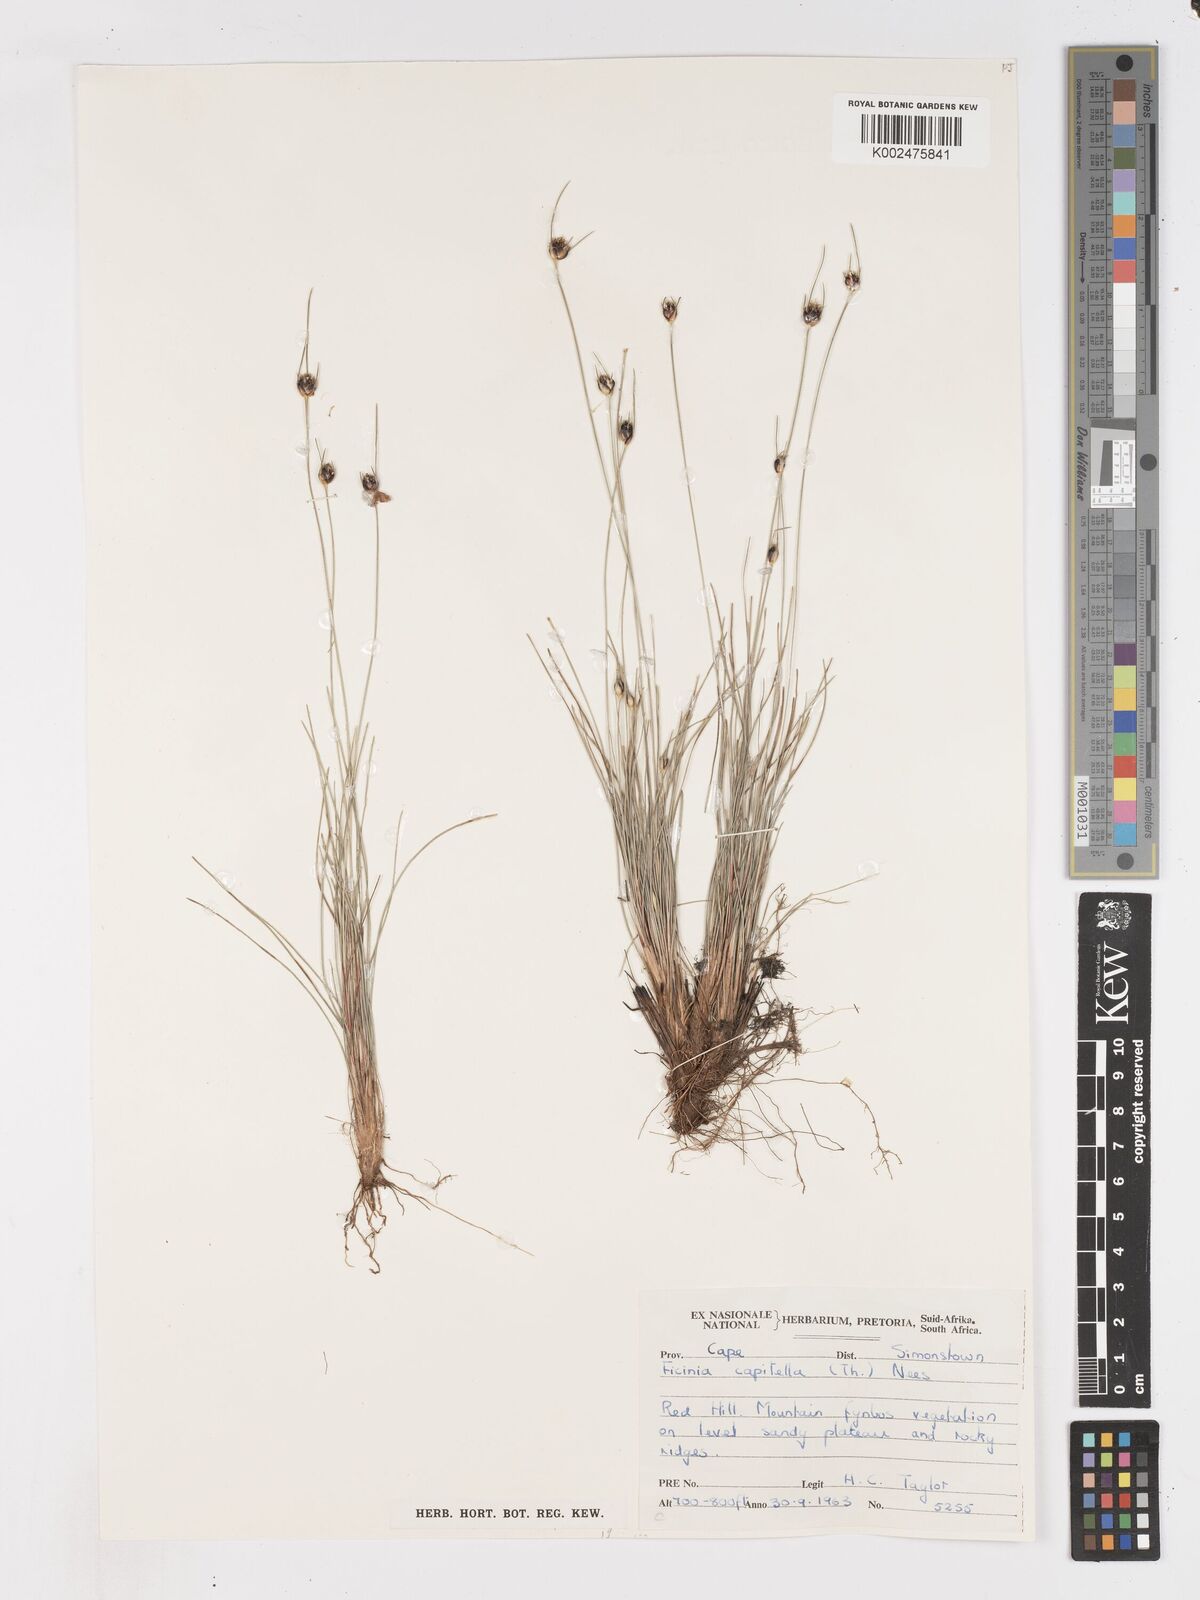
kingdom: Plantae
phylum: Tracheophyta
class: Liliopsida
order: Poales
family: Cyperaceae
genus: Ficinia
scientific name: Ficinia capitella
